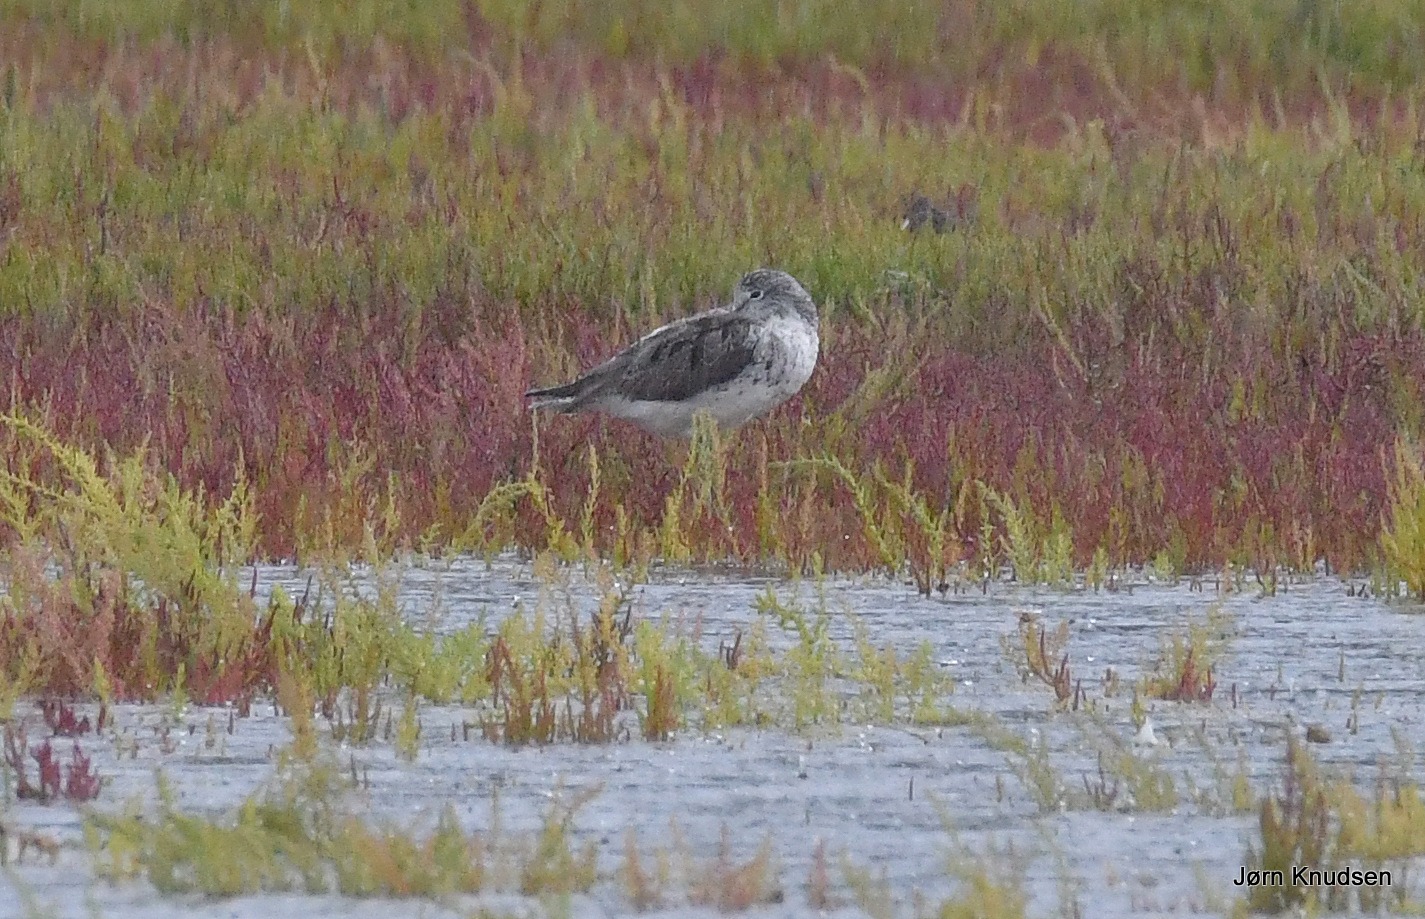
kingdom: Animalia
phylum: Chordata
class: Aves
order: Charadriiformes
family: Scolopacidae
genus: Tringa
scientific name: Tringa nebularia
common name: Hvidklire
